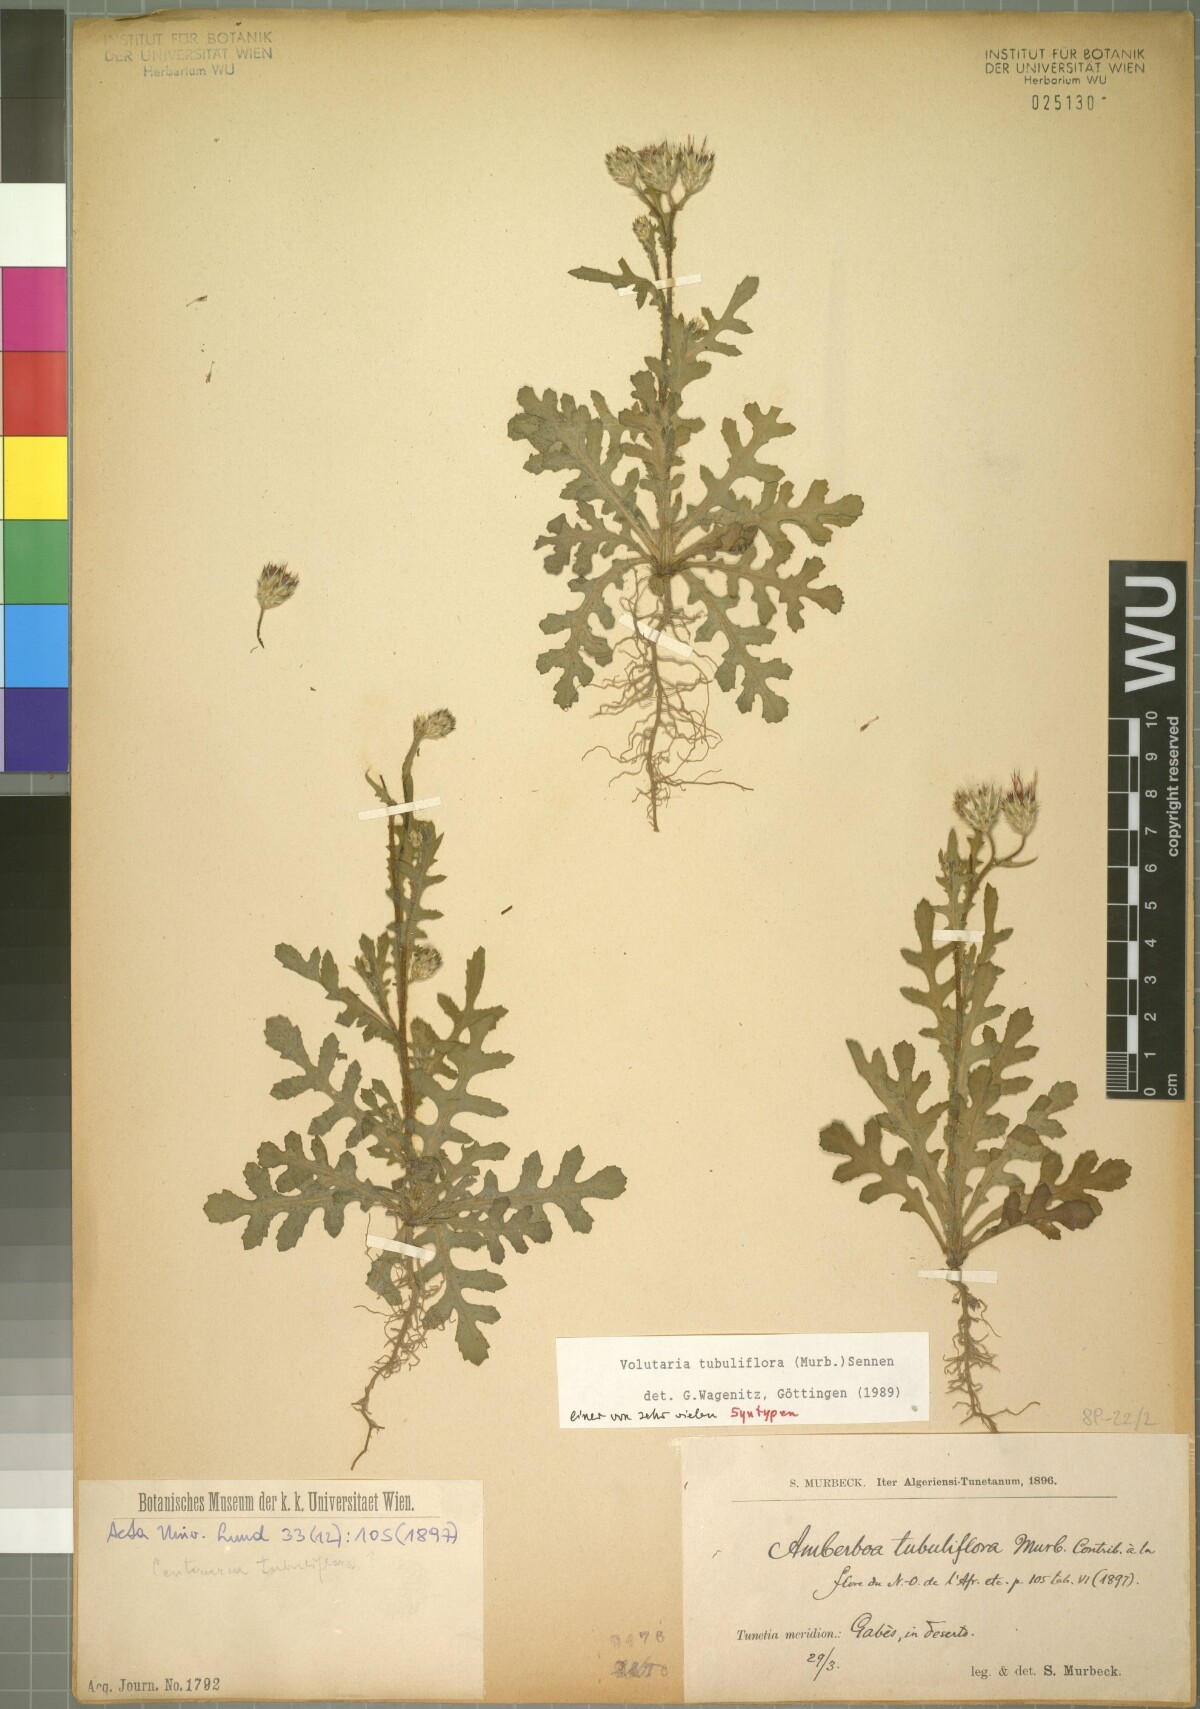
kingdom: Plantae
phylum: Tracheophyta
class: Magnoliopsida
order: Asterales
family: Asteraceae
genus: Volutaria
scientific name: Volutaria tubuliflora
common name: Desert knapweed
